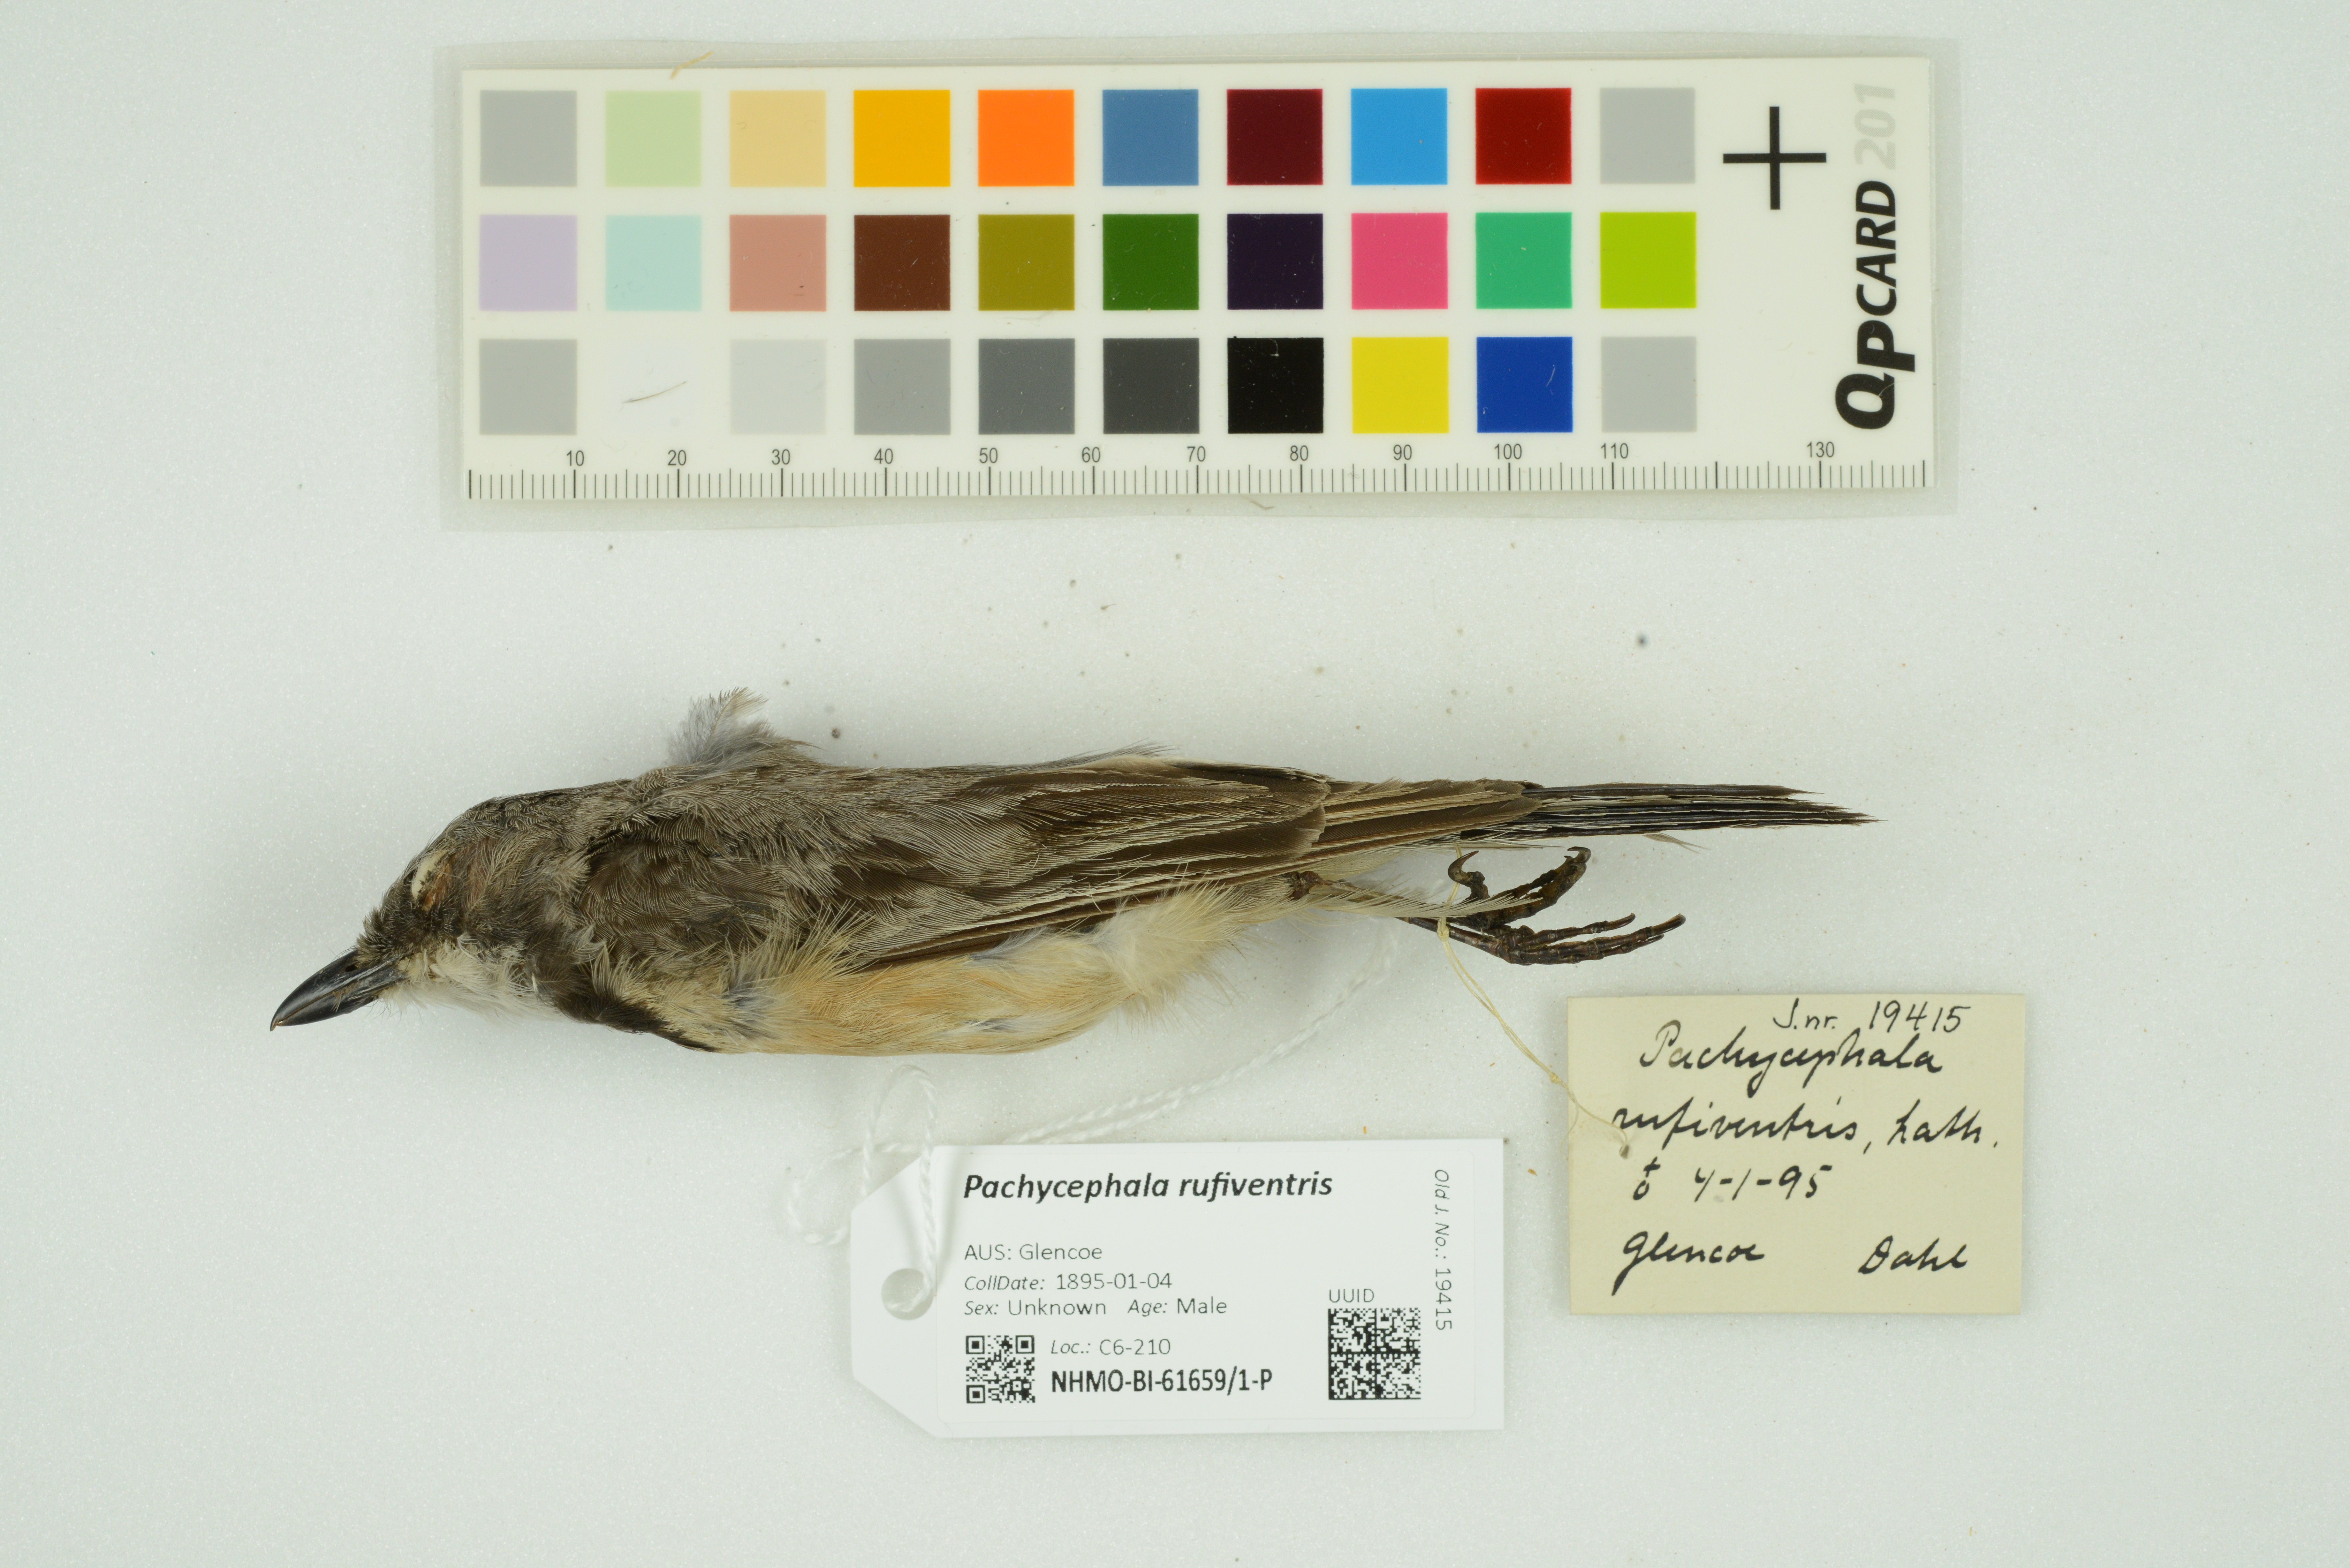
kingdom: Animalia
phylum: Chordata
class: Aves
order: Passeriformes
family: Pachycephalidae
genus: Pachycephala
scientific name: Pachycephala rufiventris
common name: Rufous whistler
